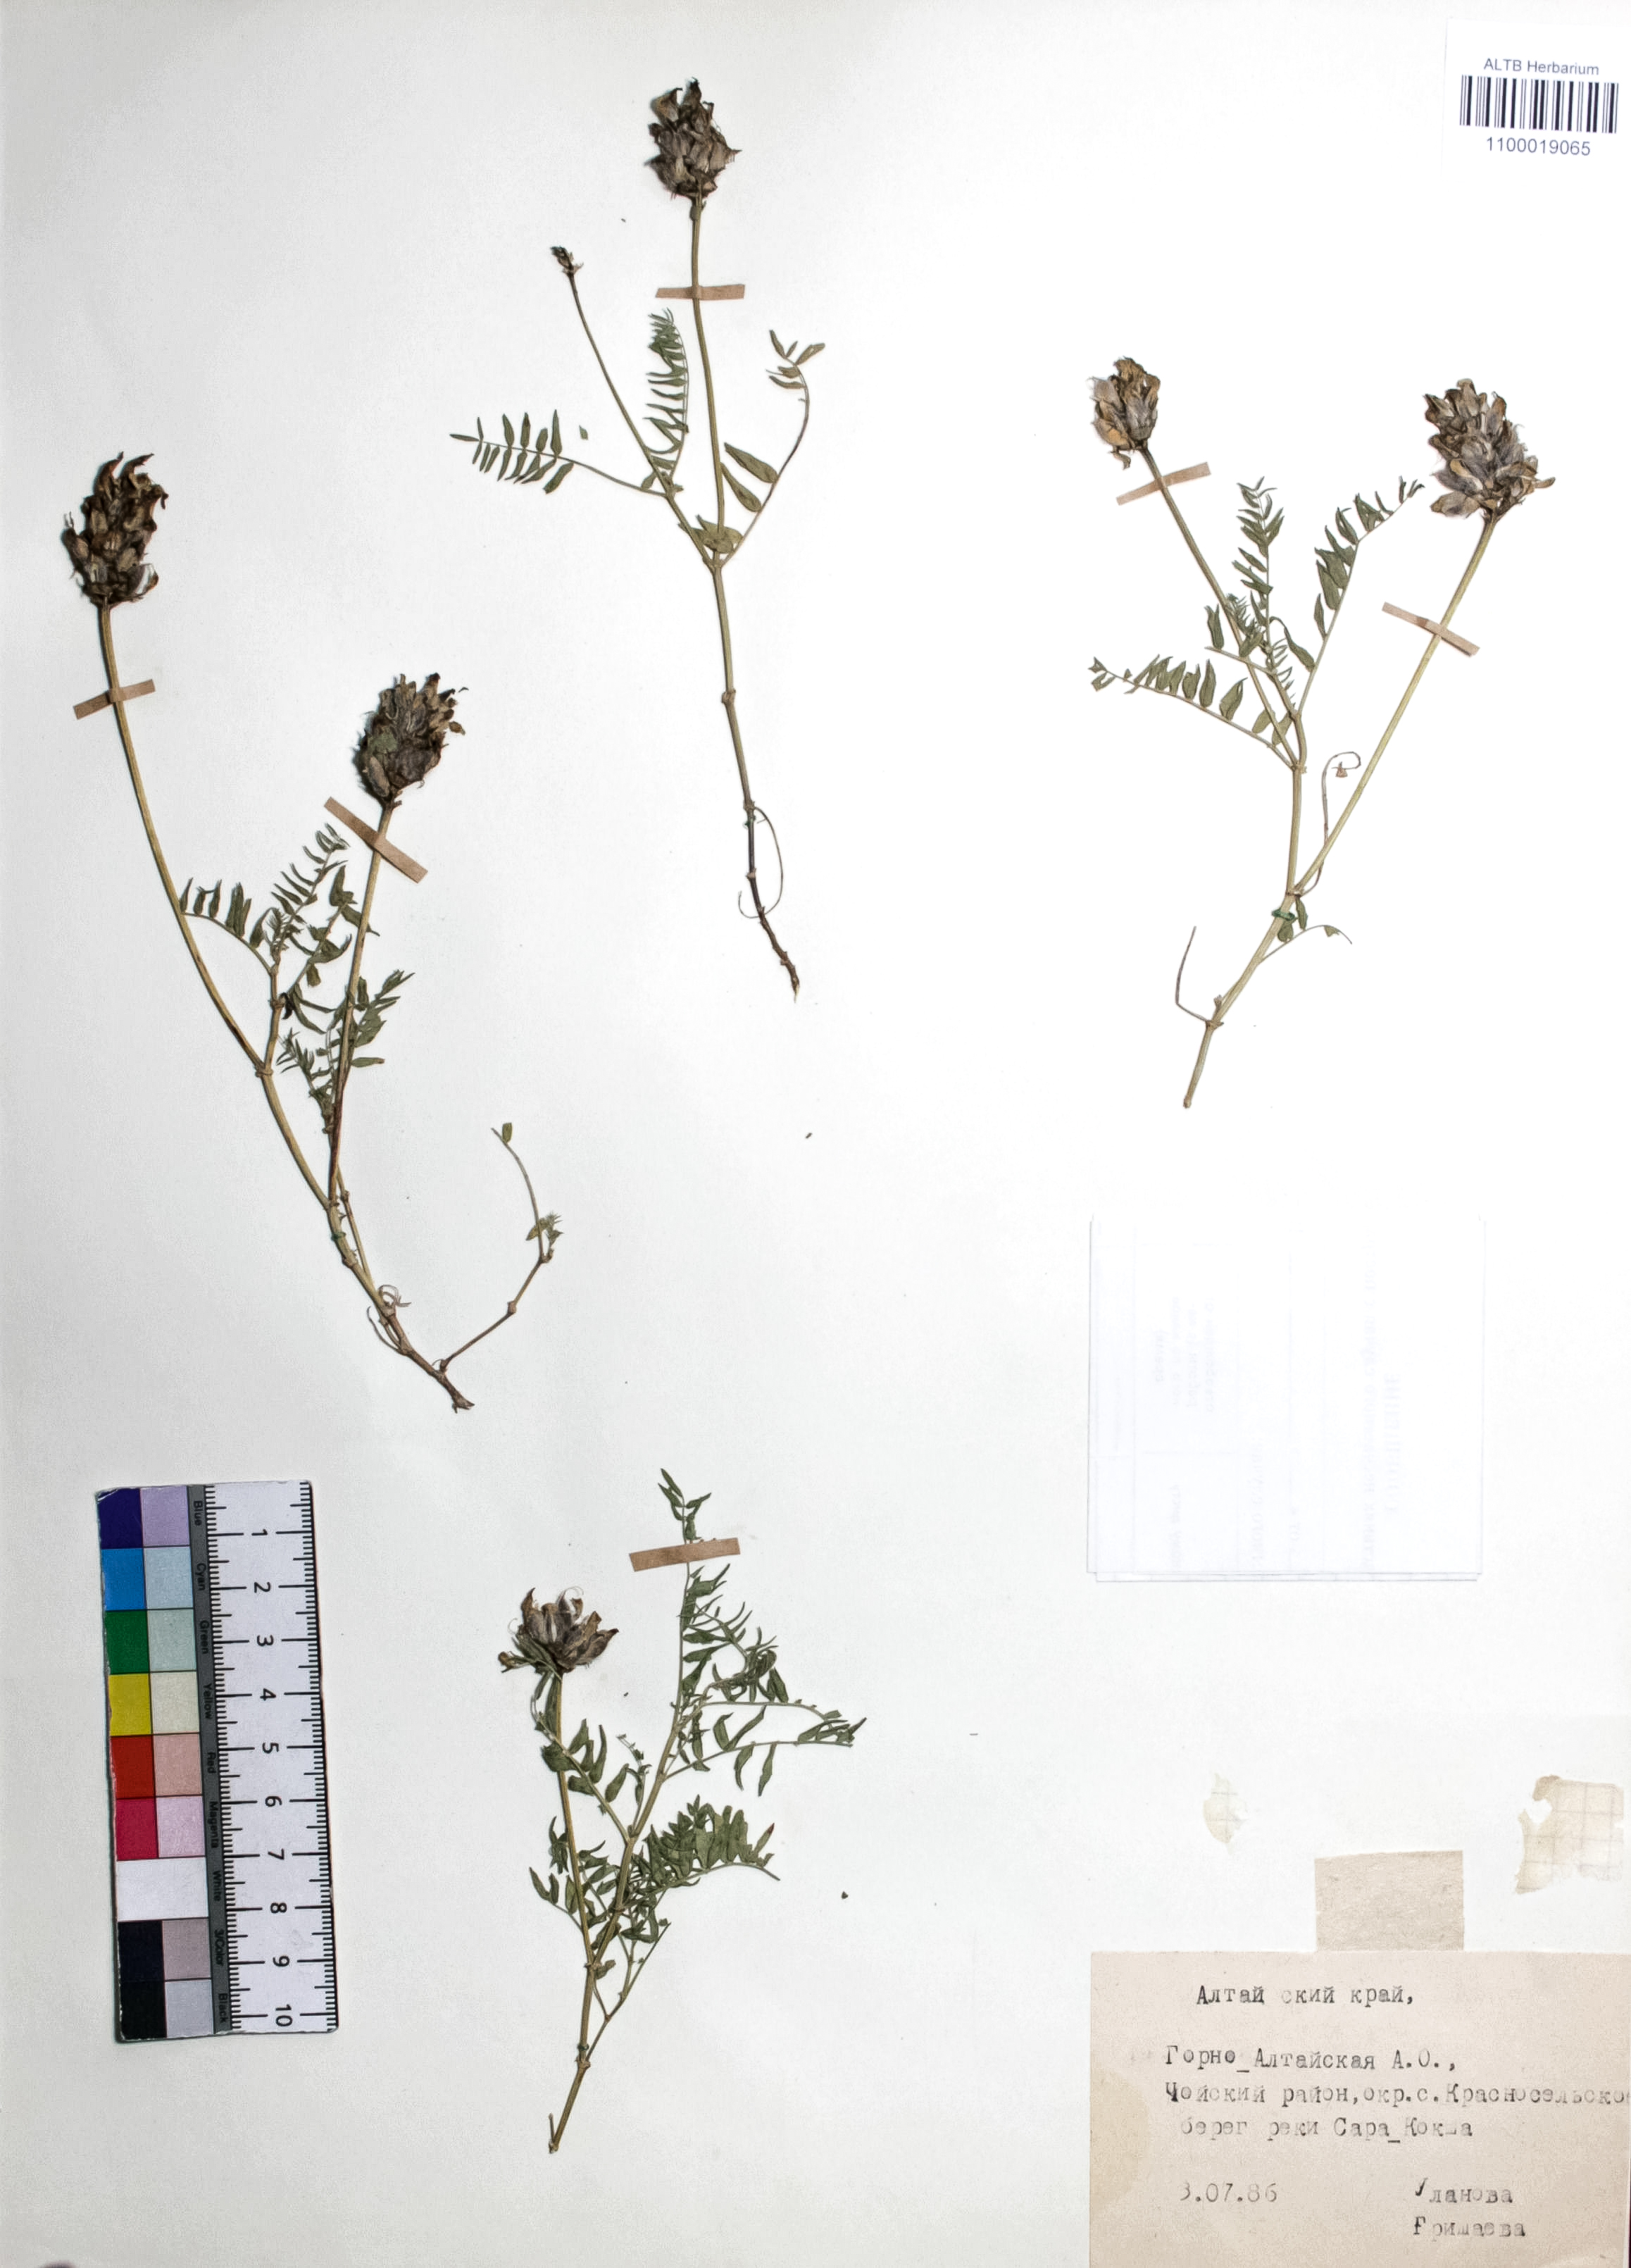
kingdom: Plantae
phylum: Tracheophyta
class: Magnoliopsida
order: Fabales
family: Fabaceae
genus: Astragalus
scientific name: Astragalus danicus
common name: Purple milk-vetch
